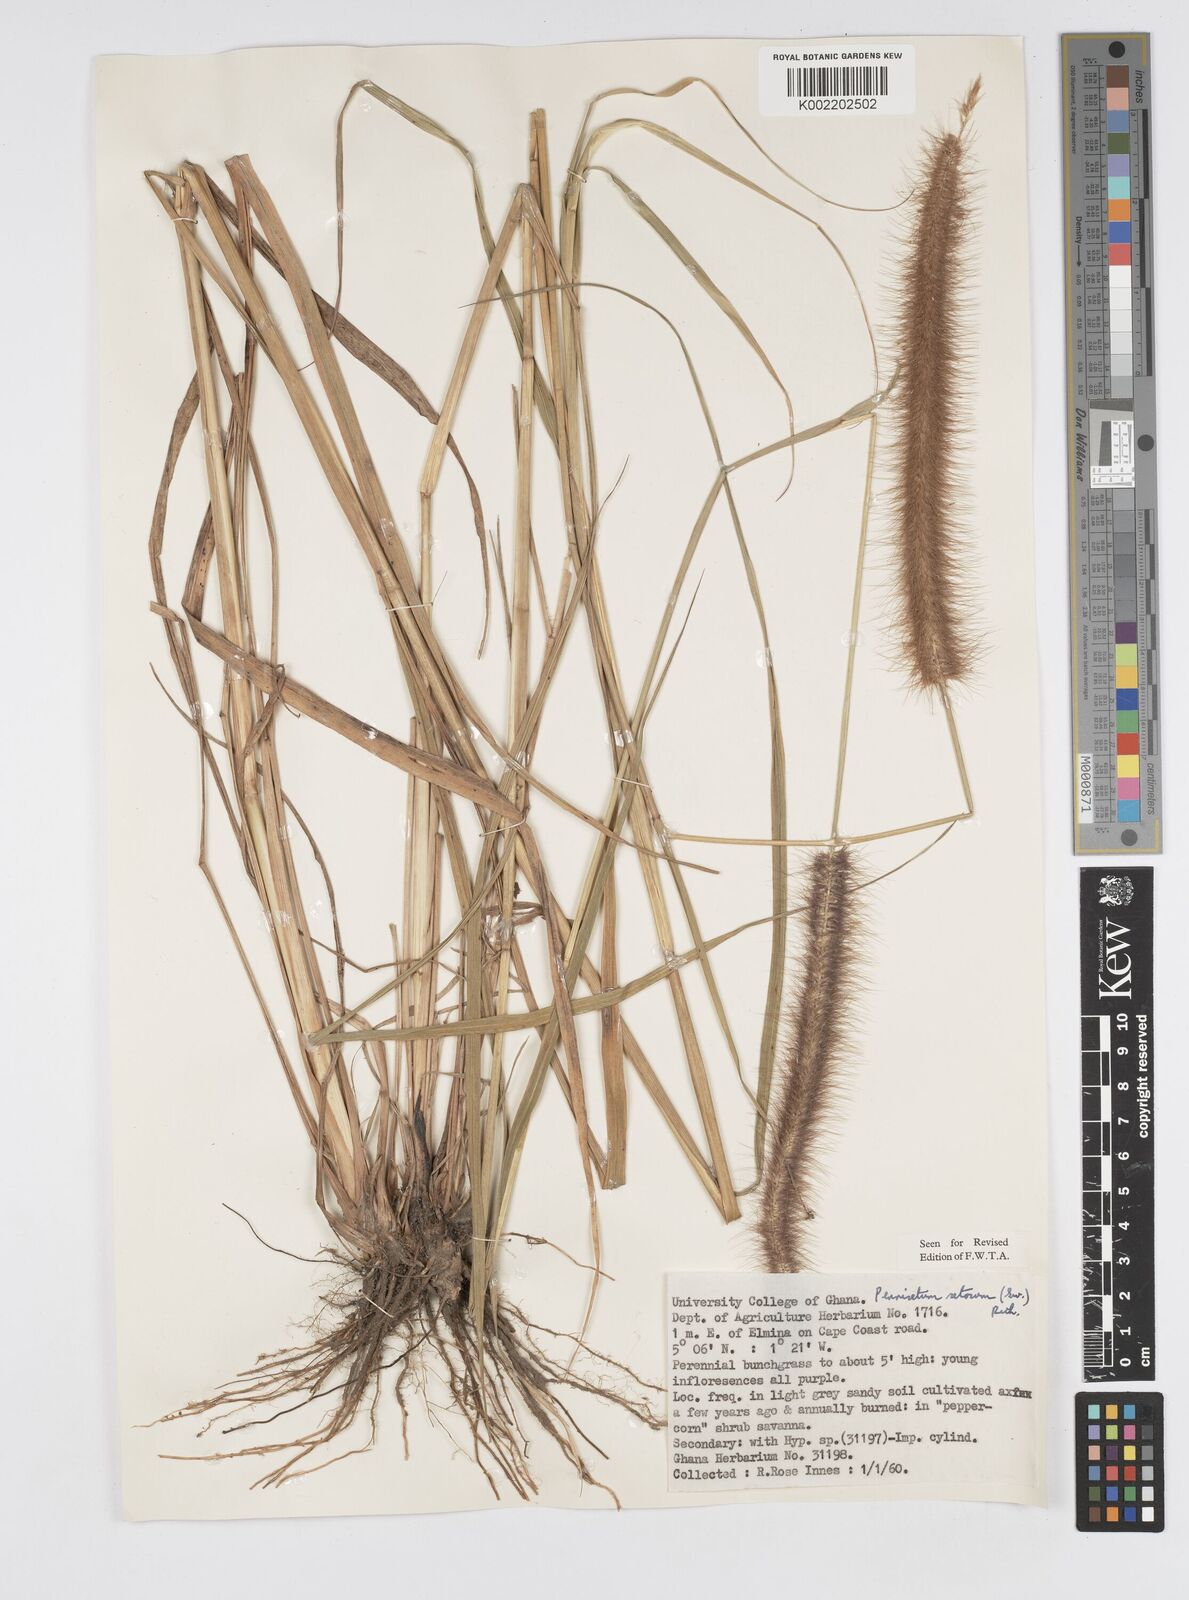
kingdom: Plantae
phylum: Tracheophyta
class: Liliopsida
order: Poales
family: Poaceae
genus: Setaria
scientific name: Setaria parviflora
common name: Knotroot bristle-grass
